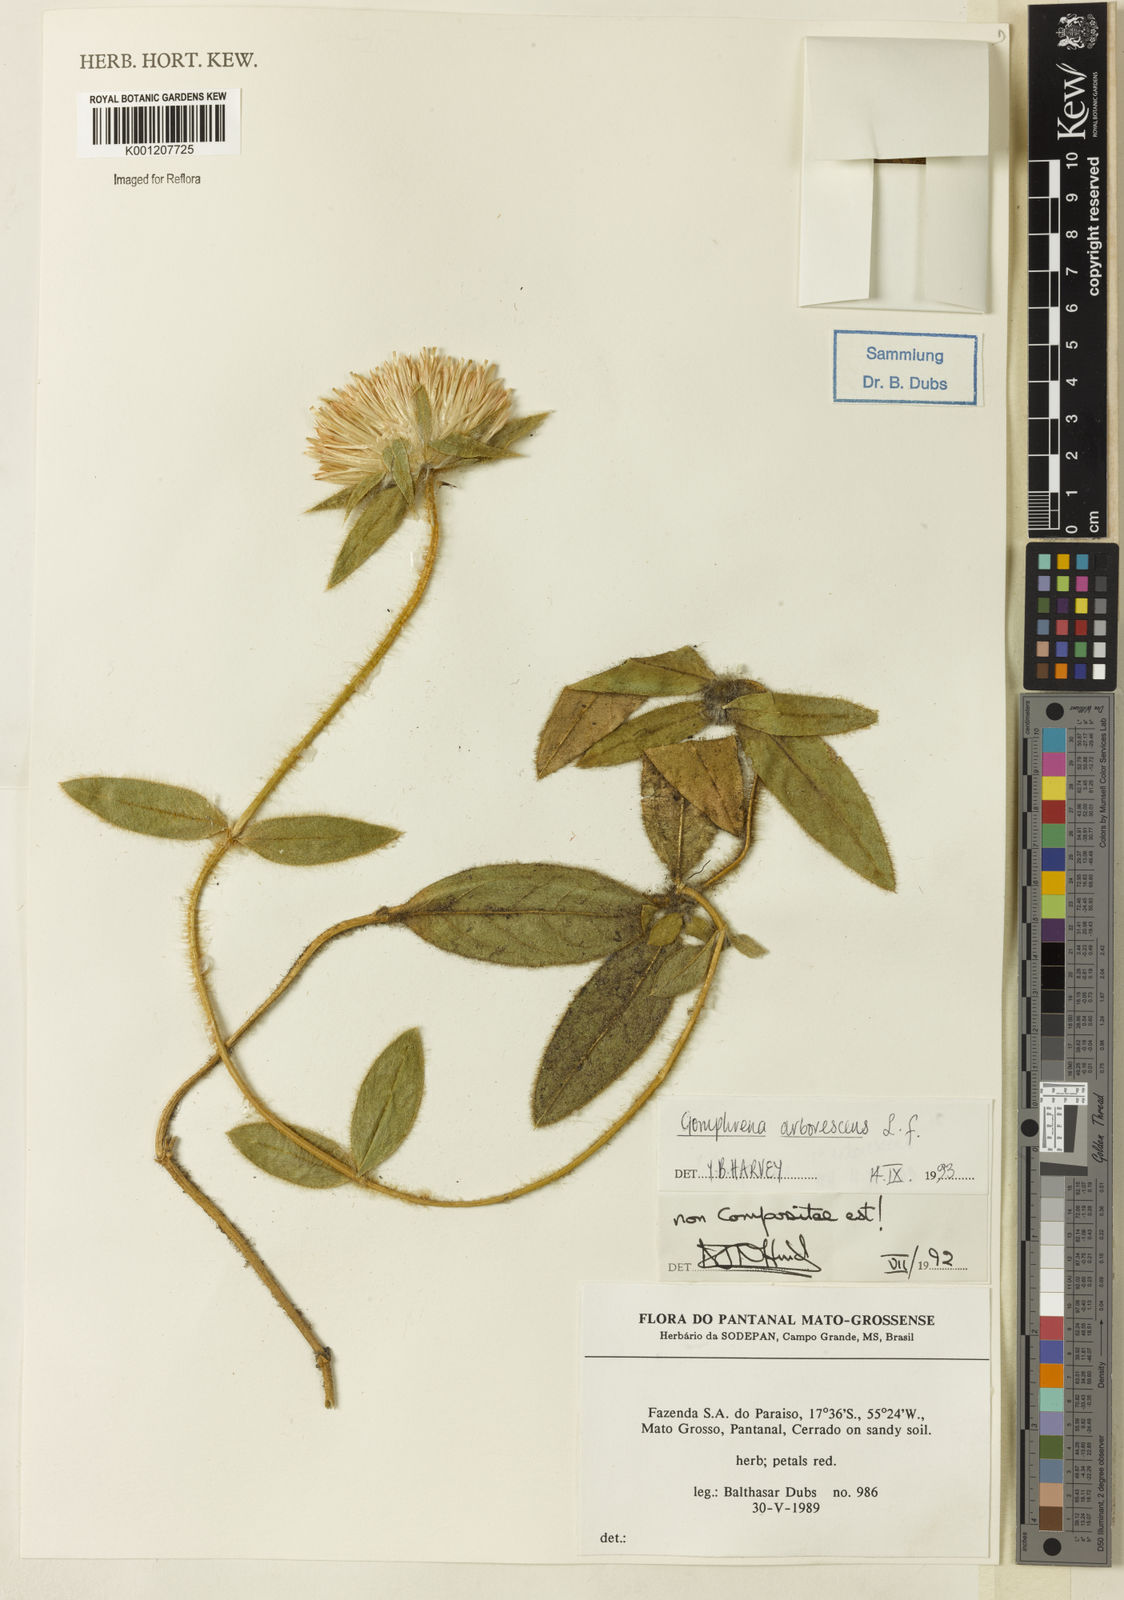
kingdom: Plantae
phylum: Tracheophyta
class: Magnoliopsida
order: Caryophyllales
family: Amaranthaceae
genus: Gomphrena
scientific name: Gomphrena arborescens
